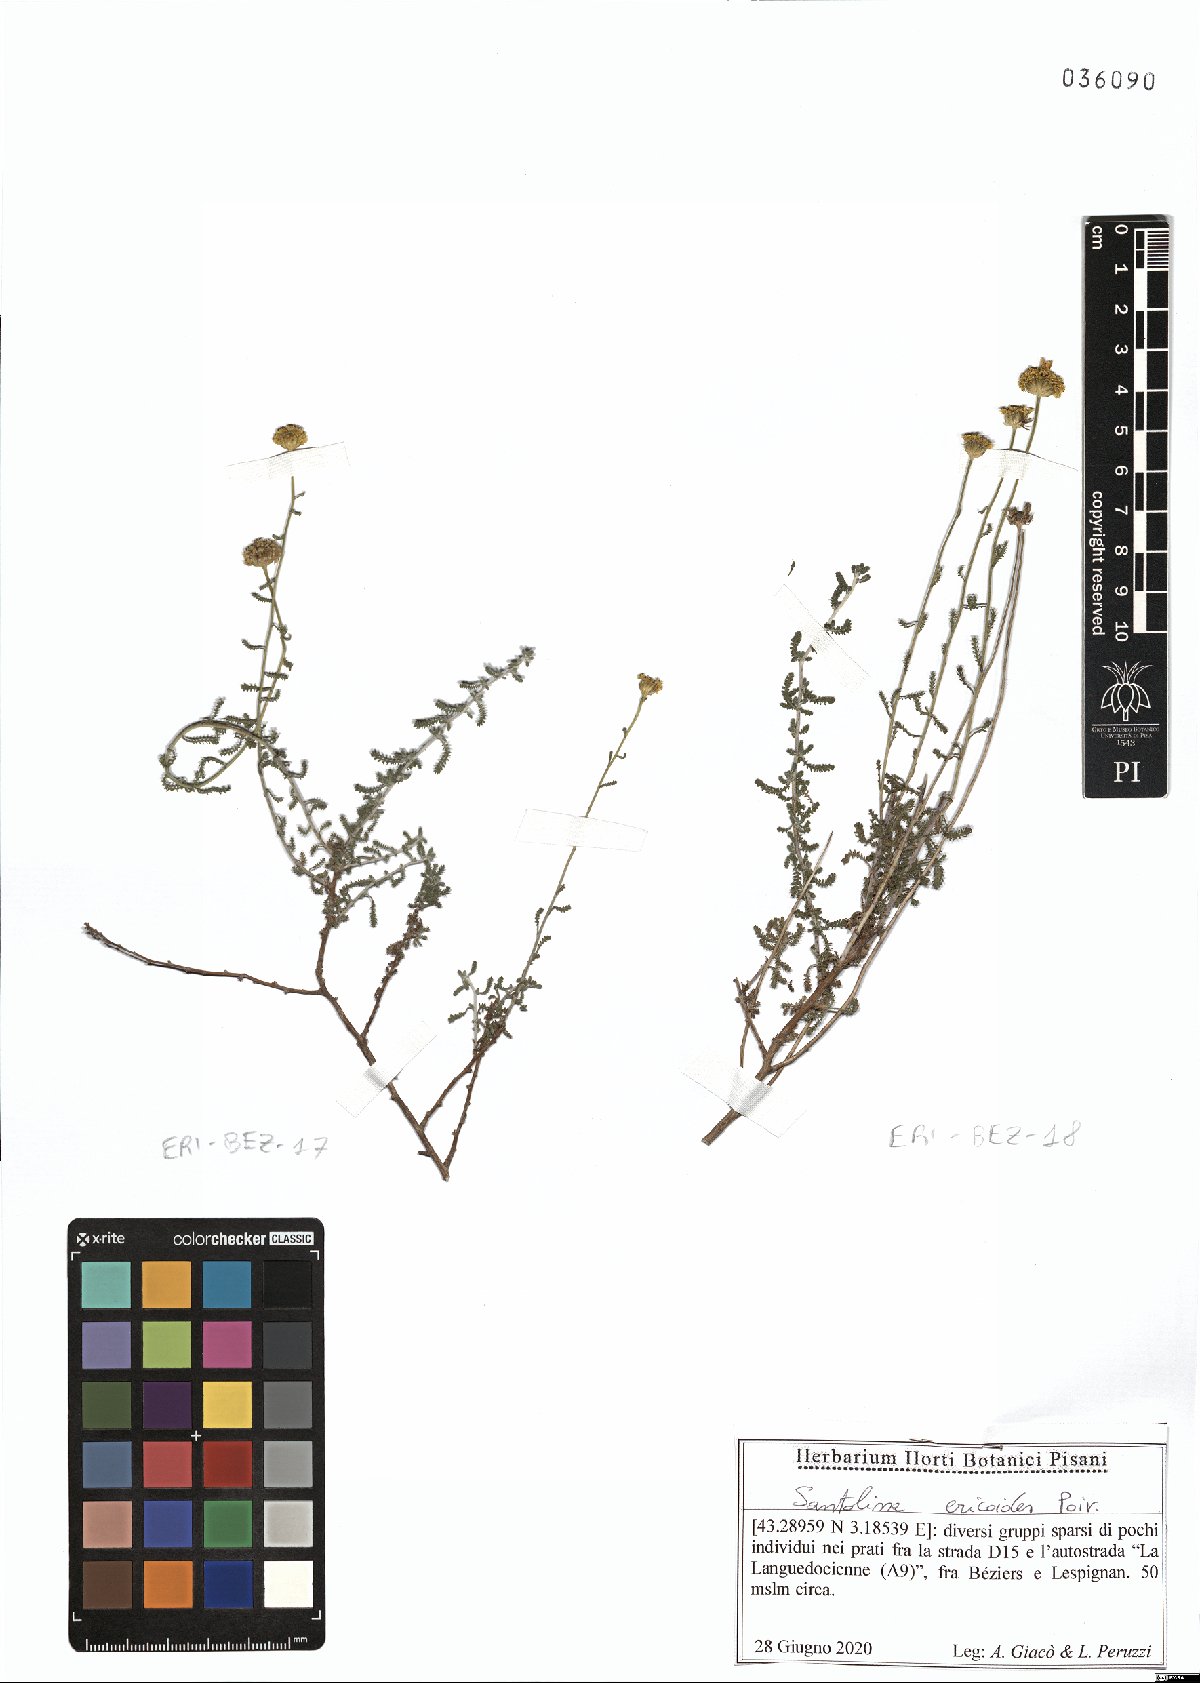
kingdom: Plantae
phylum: Tracheophyta
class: Magnoliopsida
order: Asterales
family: Asteraceae
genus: Santolina
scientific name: Santolina ericoides
